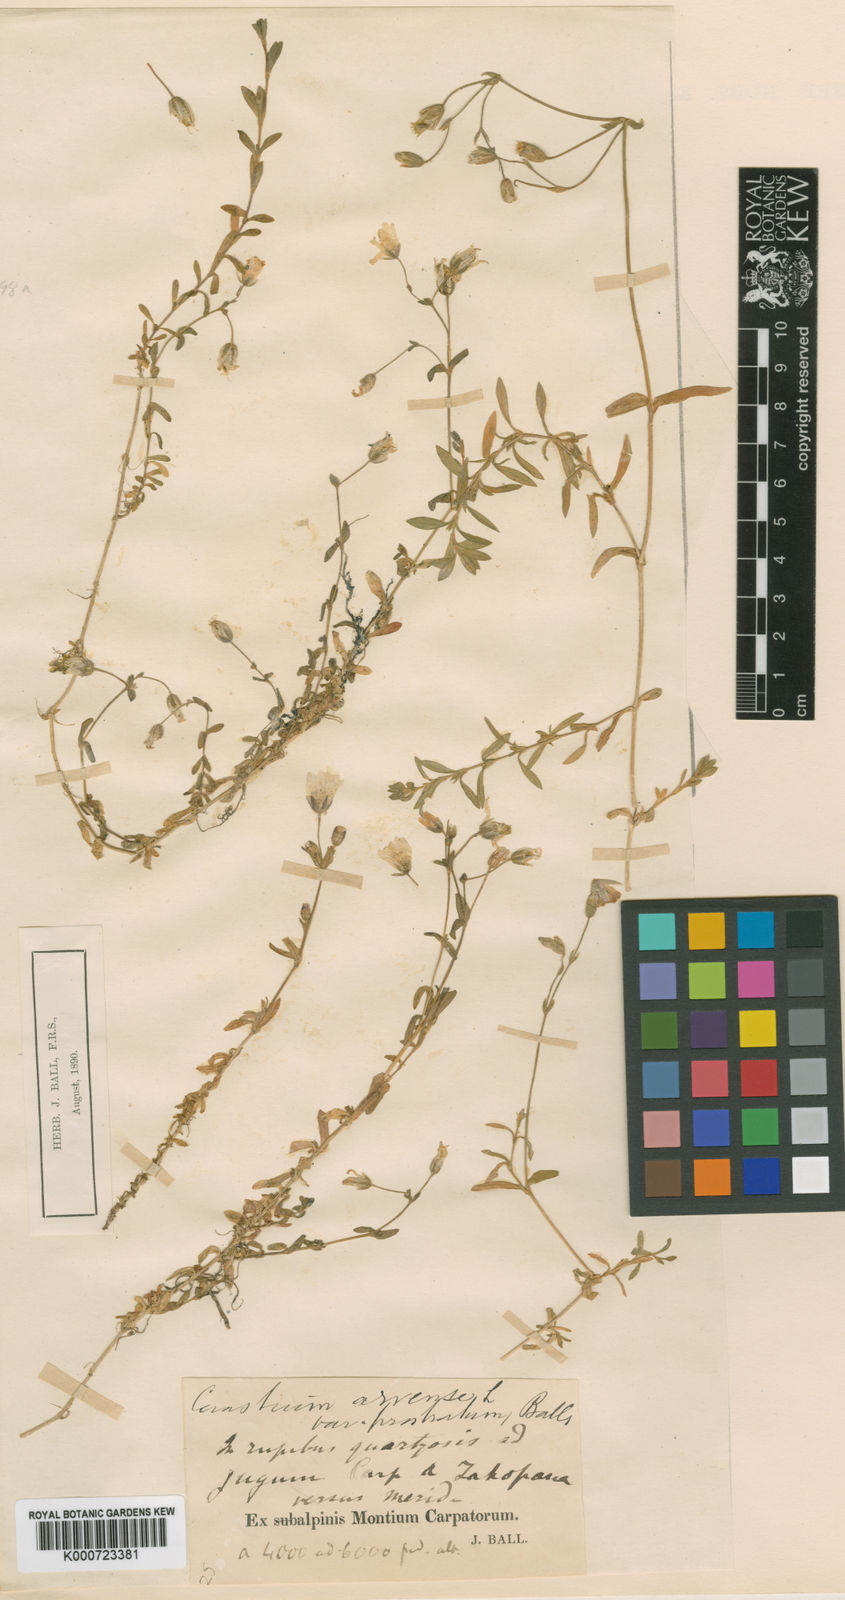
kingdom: Plantae
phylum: Tracheophyta
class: Magnoliopsida
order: Caryophyllales
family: Caryophyllaceae
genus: Cerastium
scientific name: Cerastium arvense
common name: Field mouse-ear
